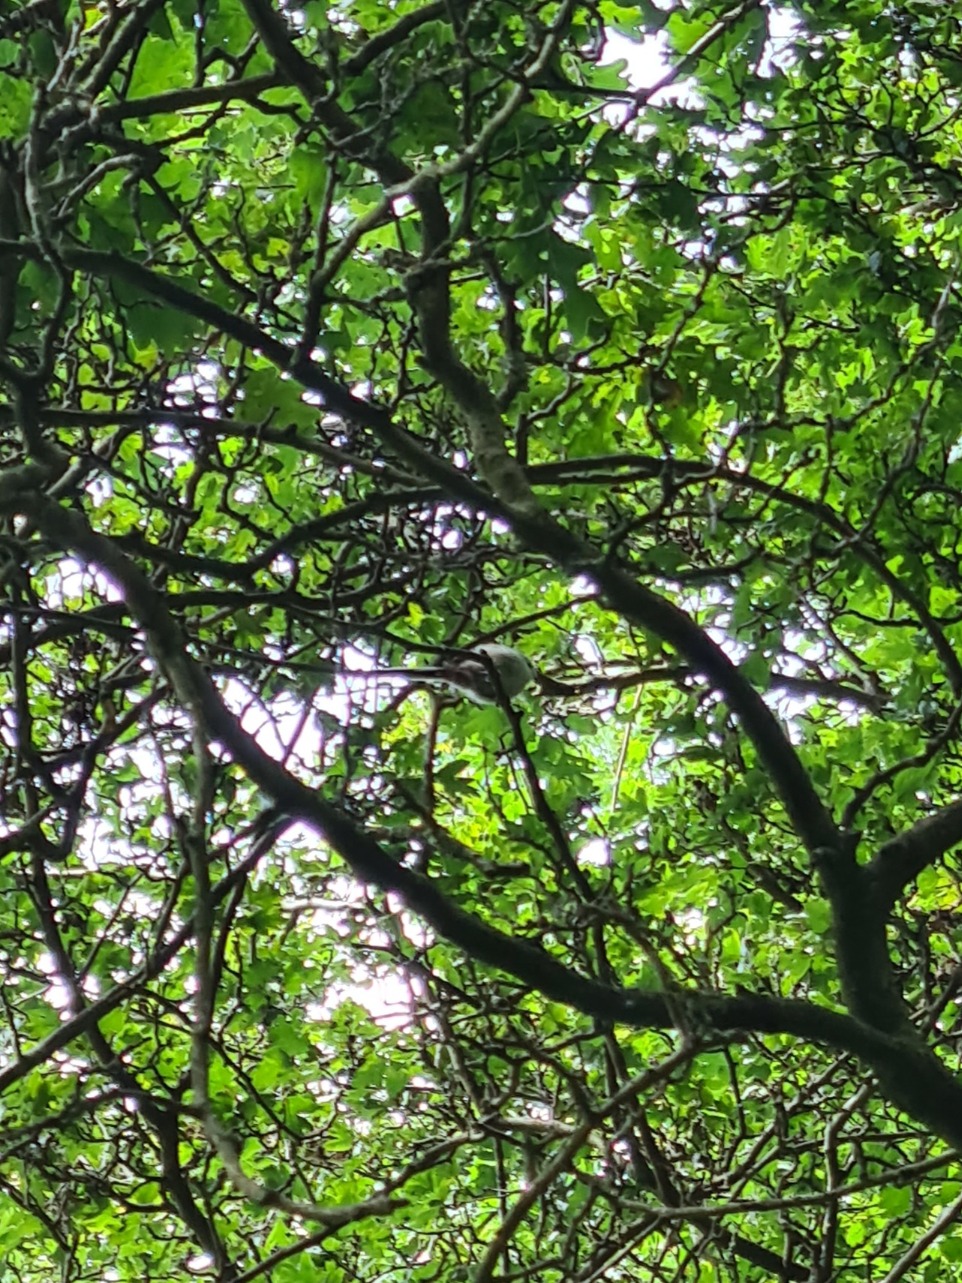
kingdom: Animalia
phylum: Chordata
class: Aves
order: Passeriformes
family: Aegithalidae
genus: Aegithalos
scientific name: Aegithalos caudatus
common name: Halemejse
